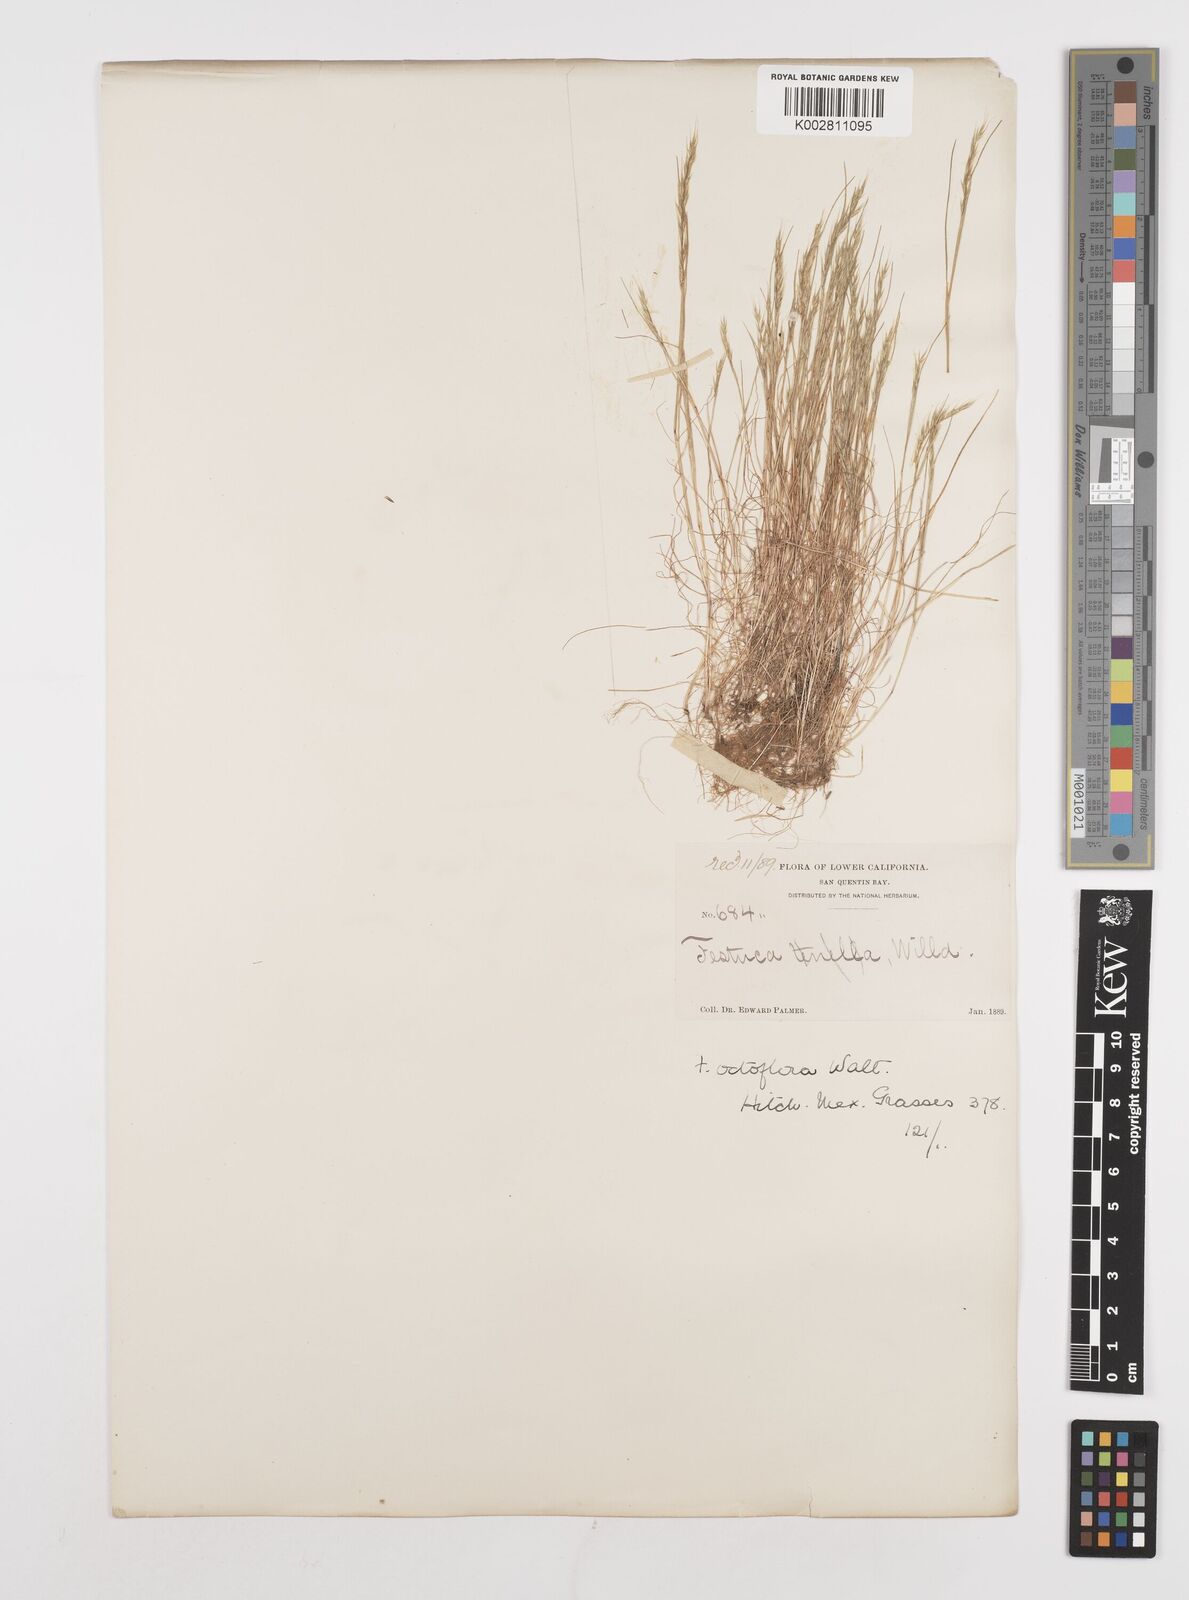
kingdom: Plantae
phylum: Tracheophyta
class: Liliopsida
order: Poales
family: Poaceae
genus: Festuca
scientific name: Festuca octoflora
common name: Sixweeks grass
